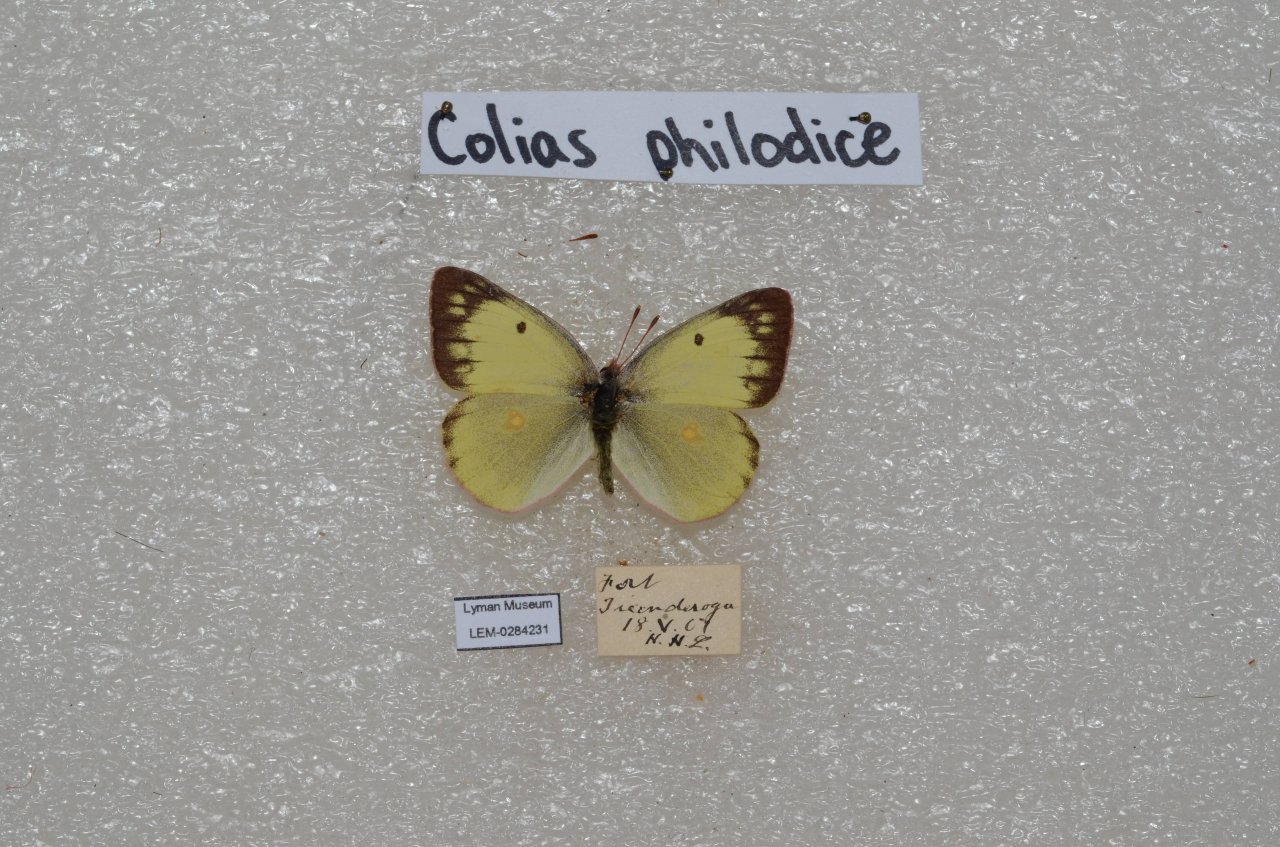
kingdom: Animalia
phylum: Arthropoda
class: Insecta
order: Lepidoptera
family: Pieridae
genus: Colias
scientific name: Colias philodice
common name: Clouded Sulphur
